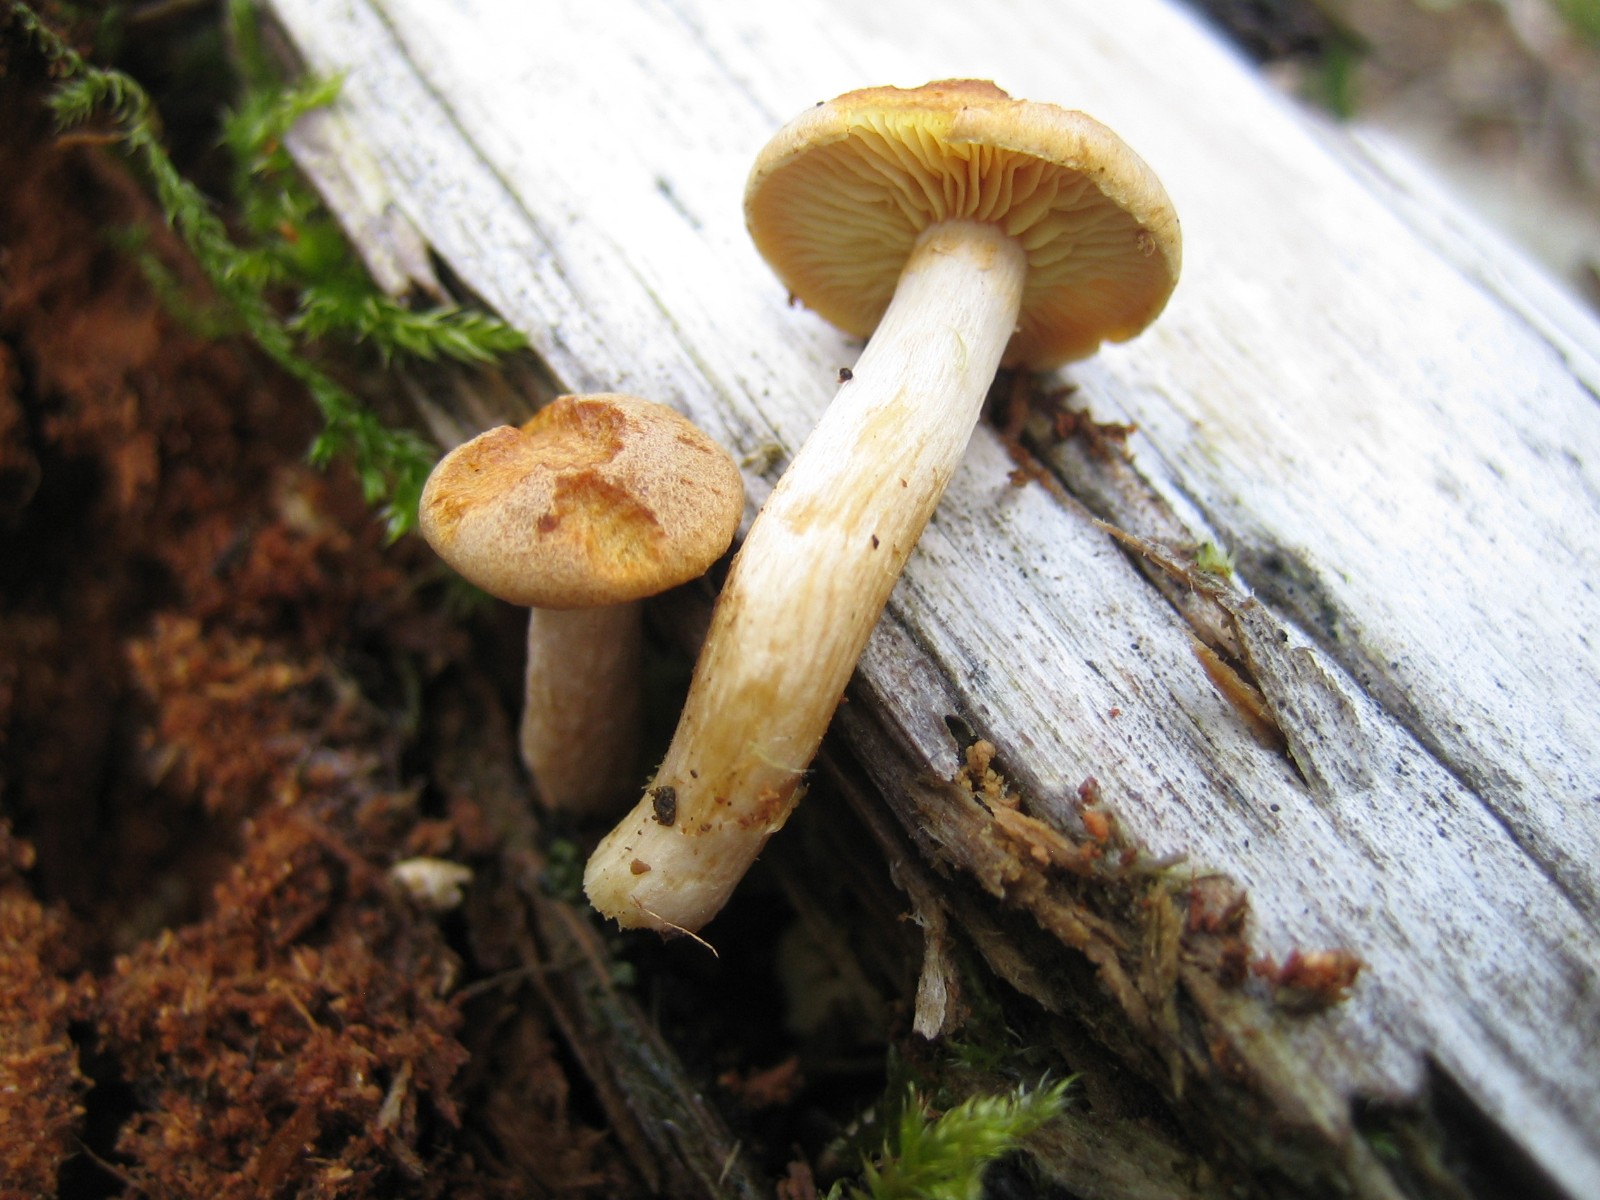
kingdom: Fungi
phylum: Basidiomycota
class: Agaricomycetes
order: Agaricales
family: Hymenogastraceae
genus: Gymnopilus
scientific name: Gymnopilus penetrans
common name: plettet flammehat
